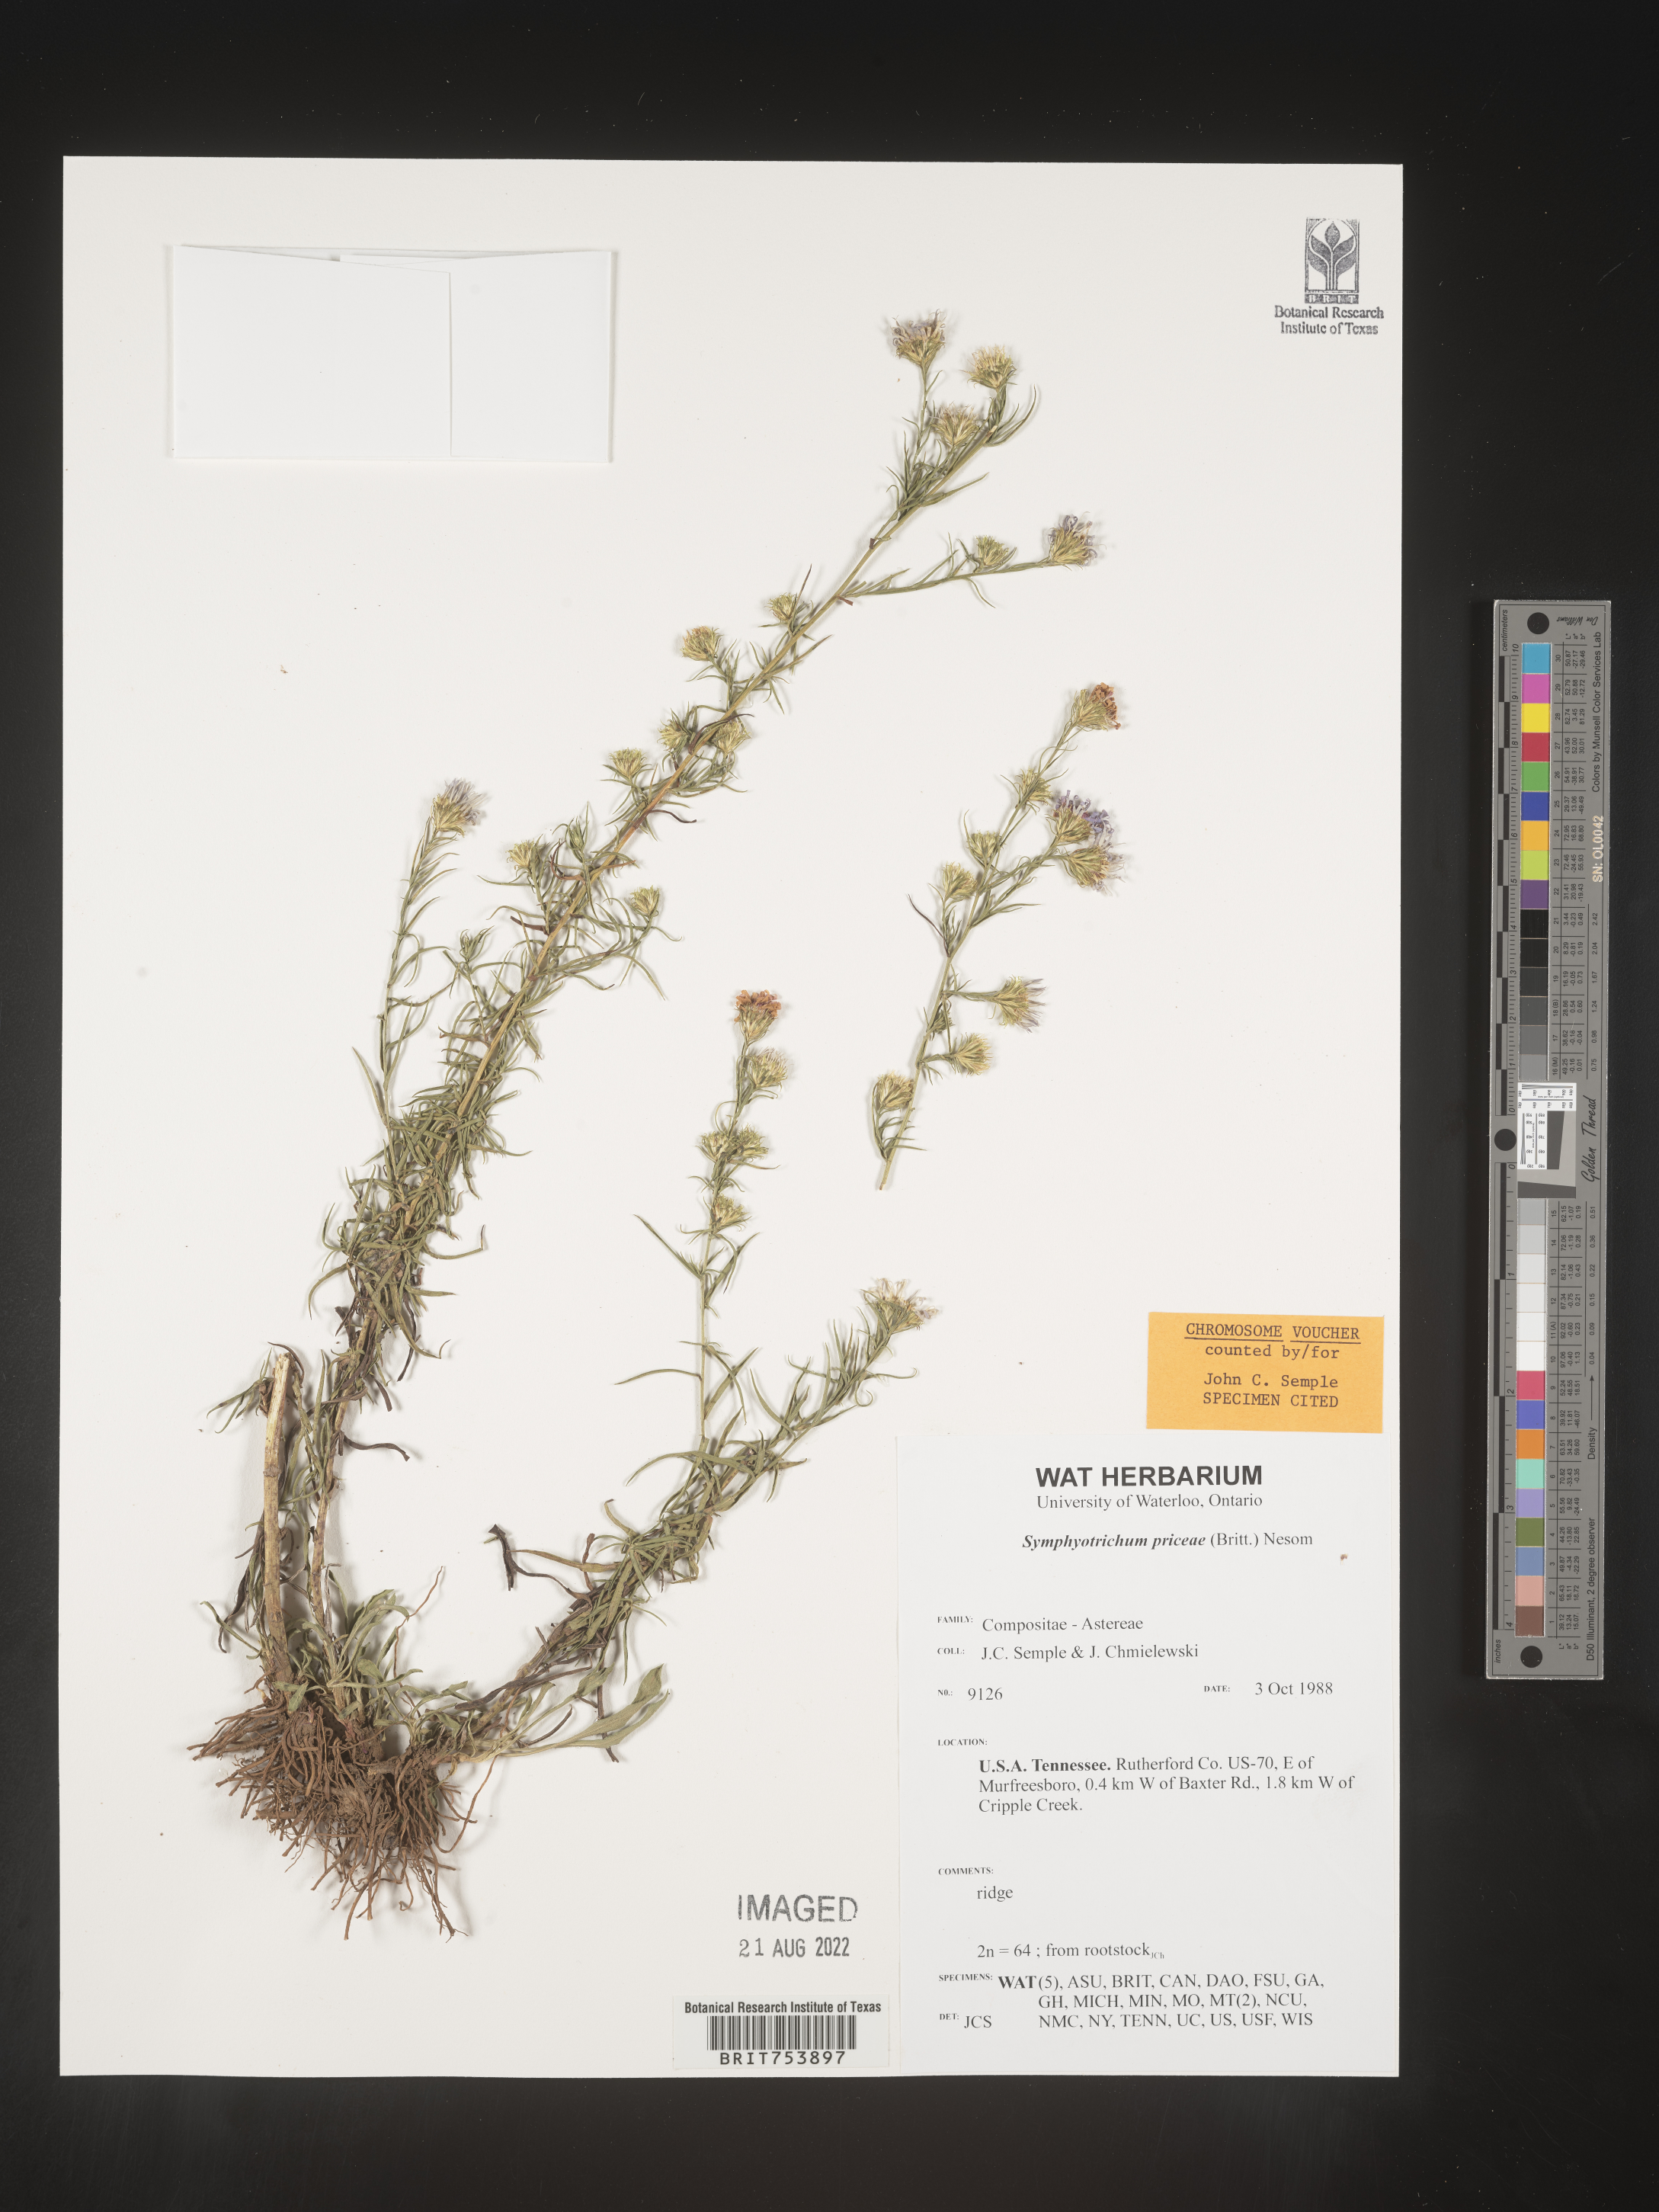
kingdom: Plantae
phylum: Tracheophyta
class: Magnoliopsida
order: Asterales
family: Asteraceae
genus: Symphyotrichum
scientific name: Symphyotrichum priceae
